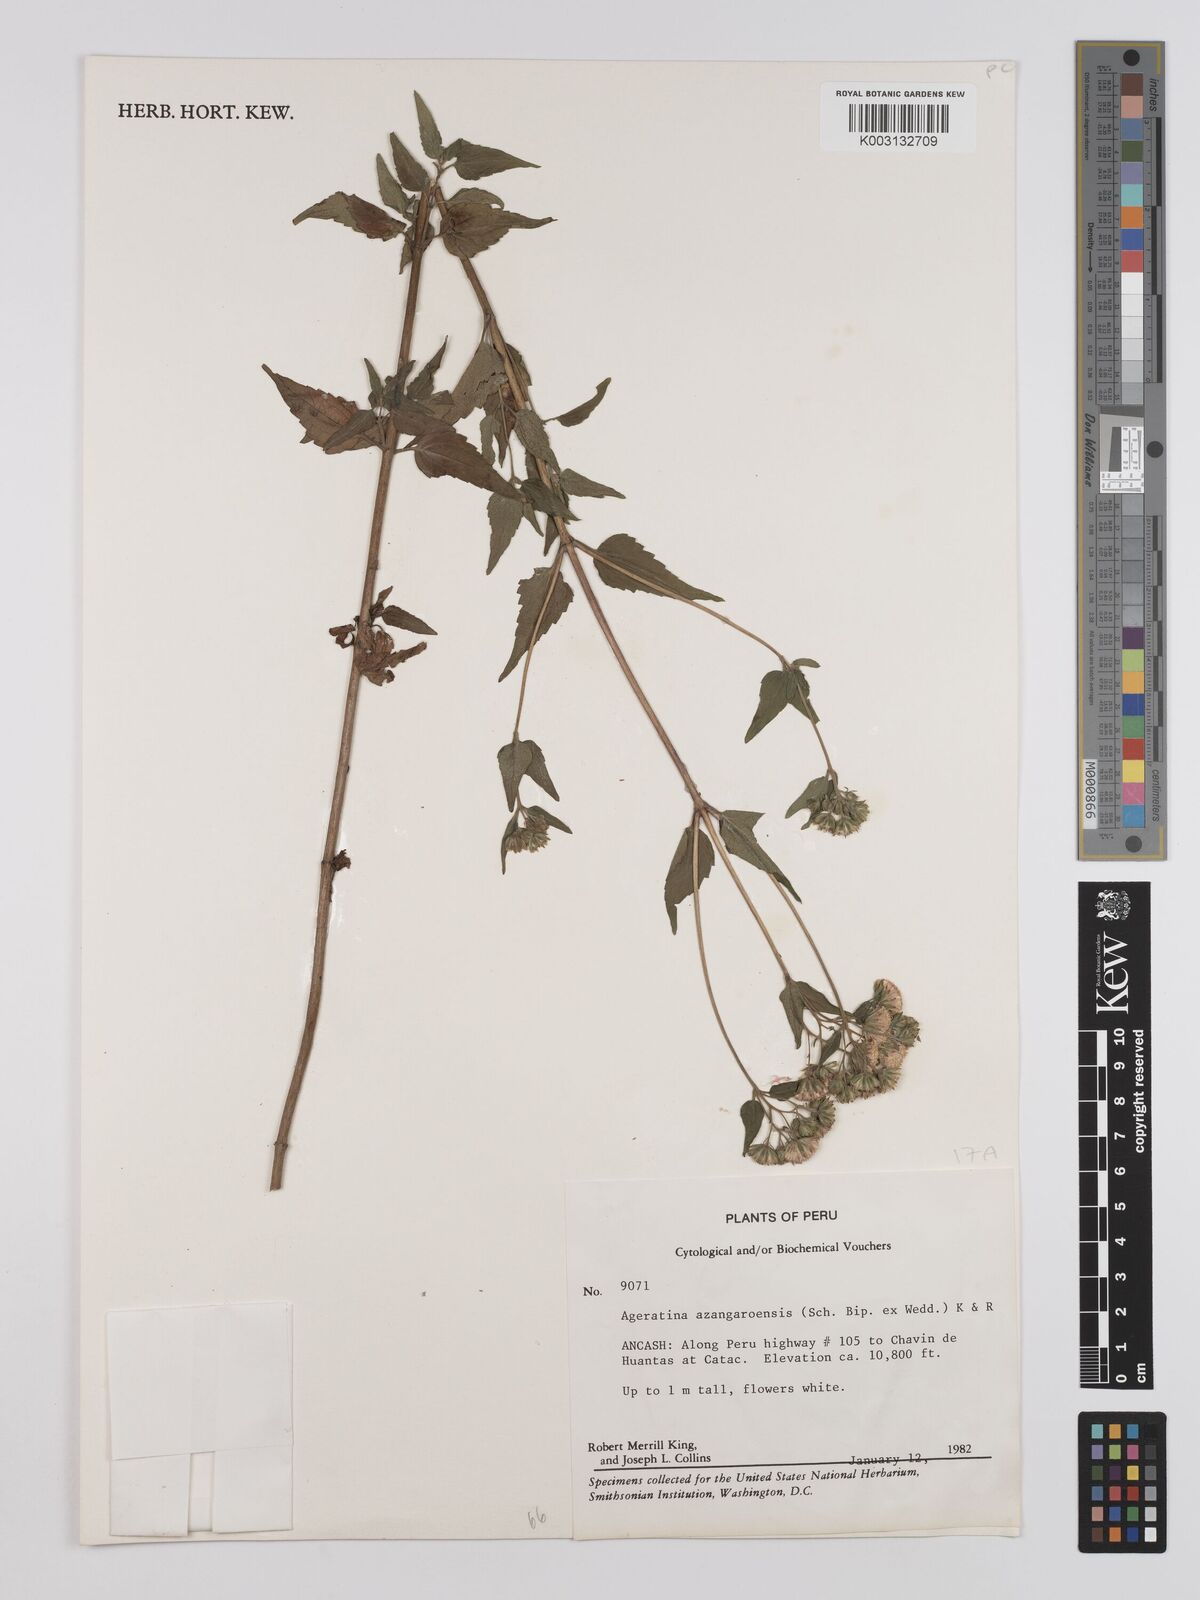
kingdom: Plantae
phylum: Tracheophyta
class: Magnoliopsida
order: Asterales
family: Asteraceae
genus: Ageratina
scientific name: Ageratina glechonophylla
